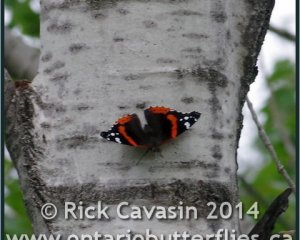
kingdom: Animalia
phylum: Arthropoda
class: Insecta
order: Lepidoptera
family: Nymphalidae
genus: Vanessa
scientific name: Vanessa atalanta
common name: Red Admiral
